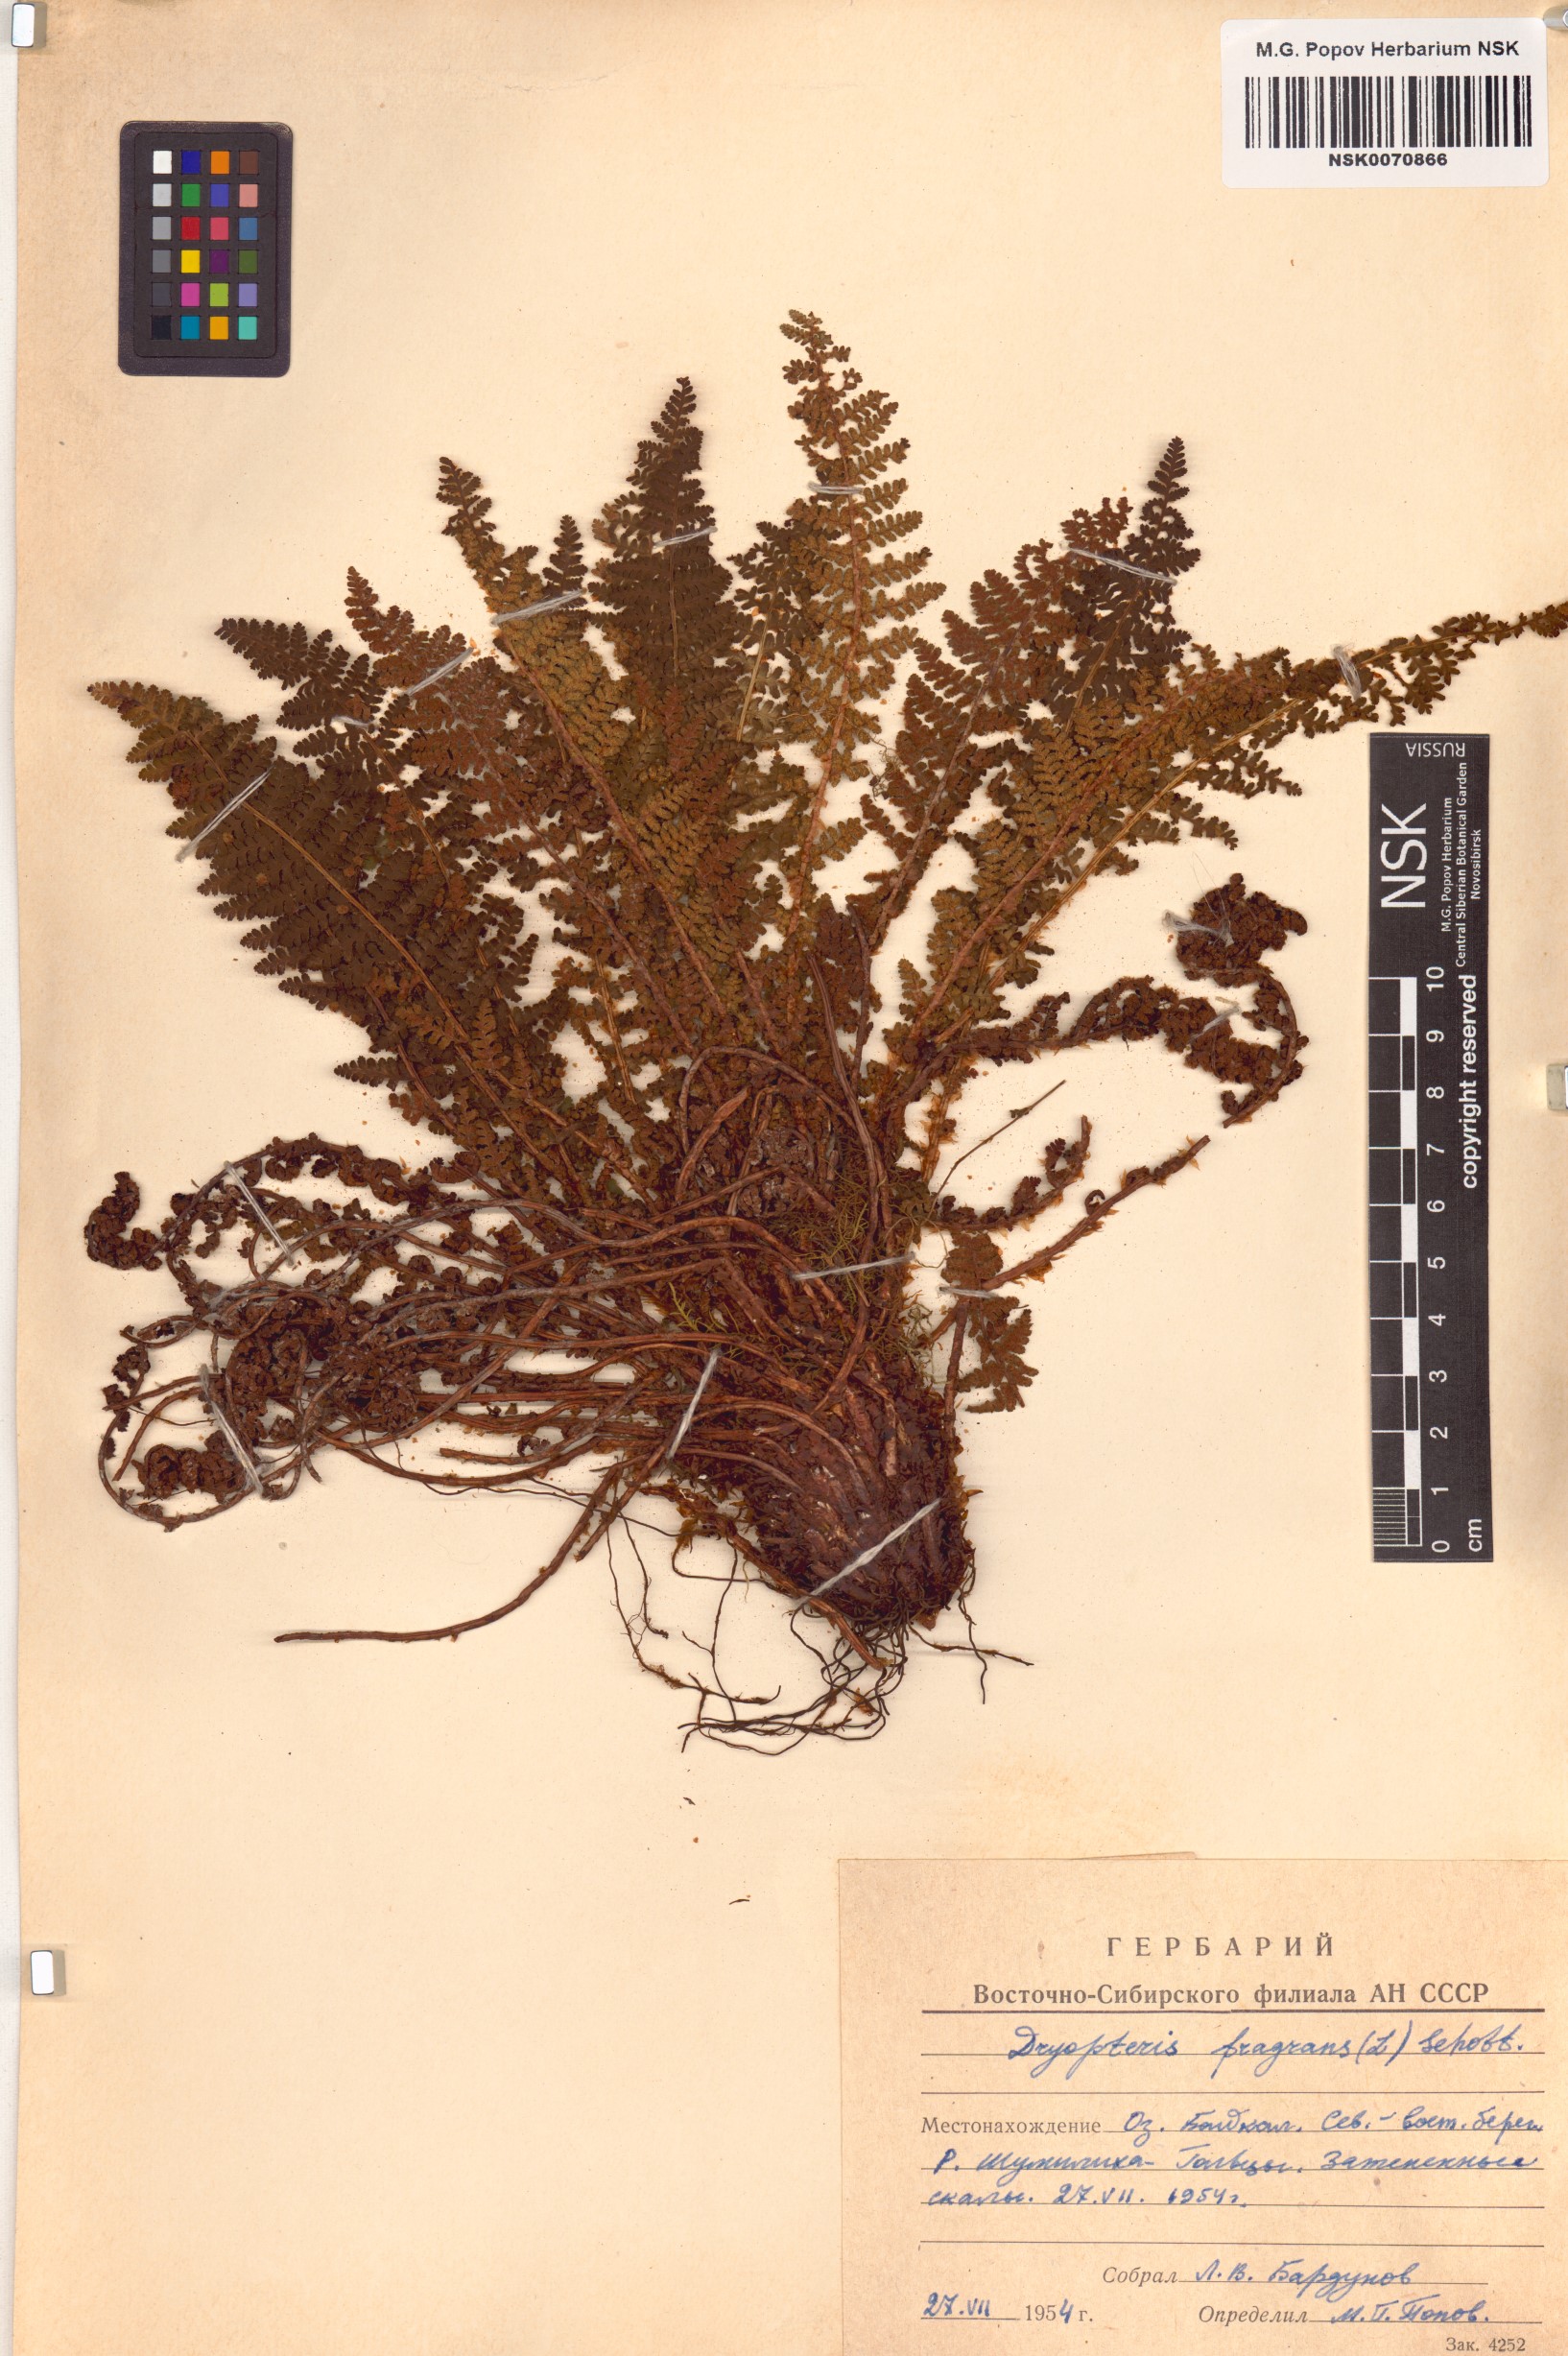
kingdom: Plantae
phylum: Tracheophyta
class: Polypodiopsida
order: Polypodiales
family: Dryopteridaceae
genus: Dryopteris
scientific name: Dryopteris fragrans
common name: Fragrant wood fern
